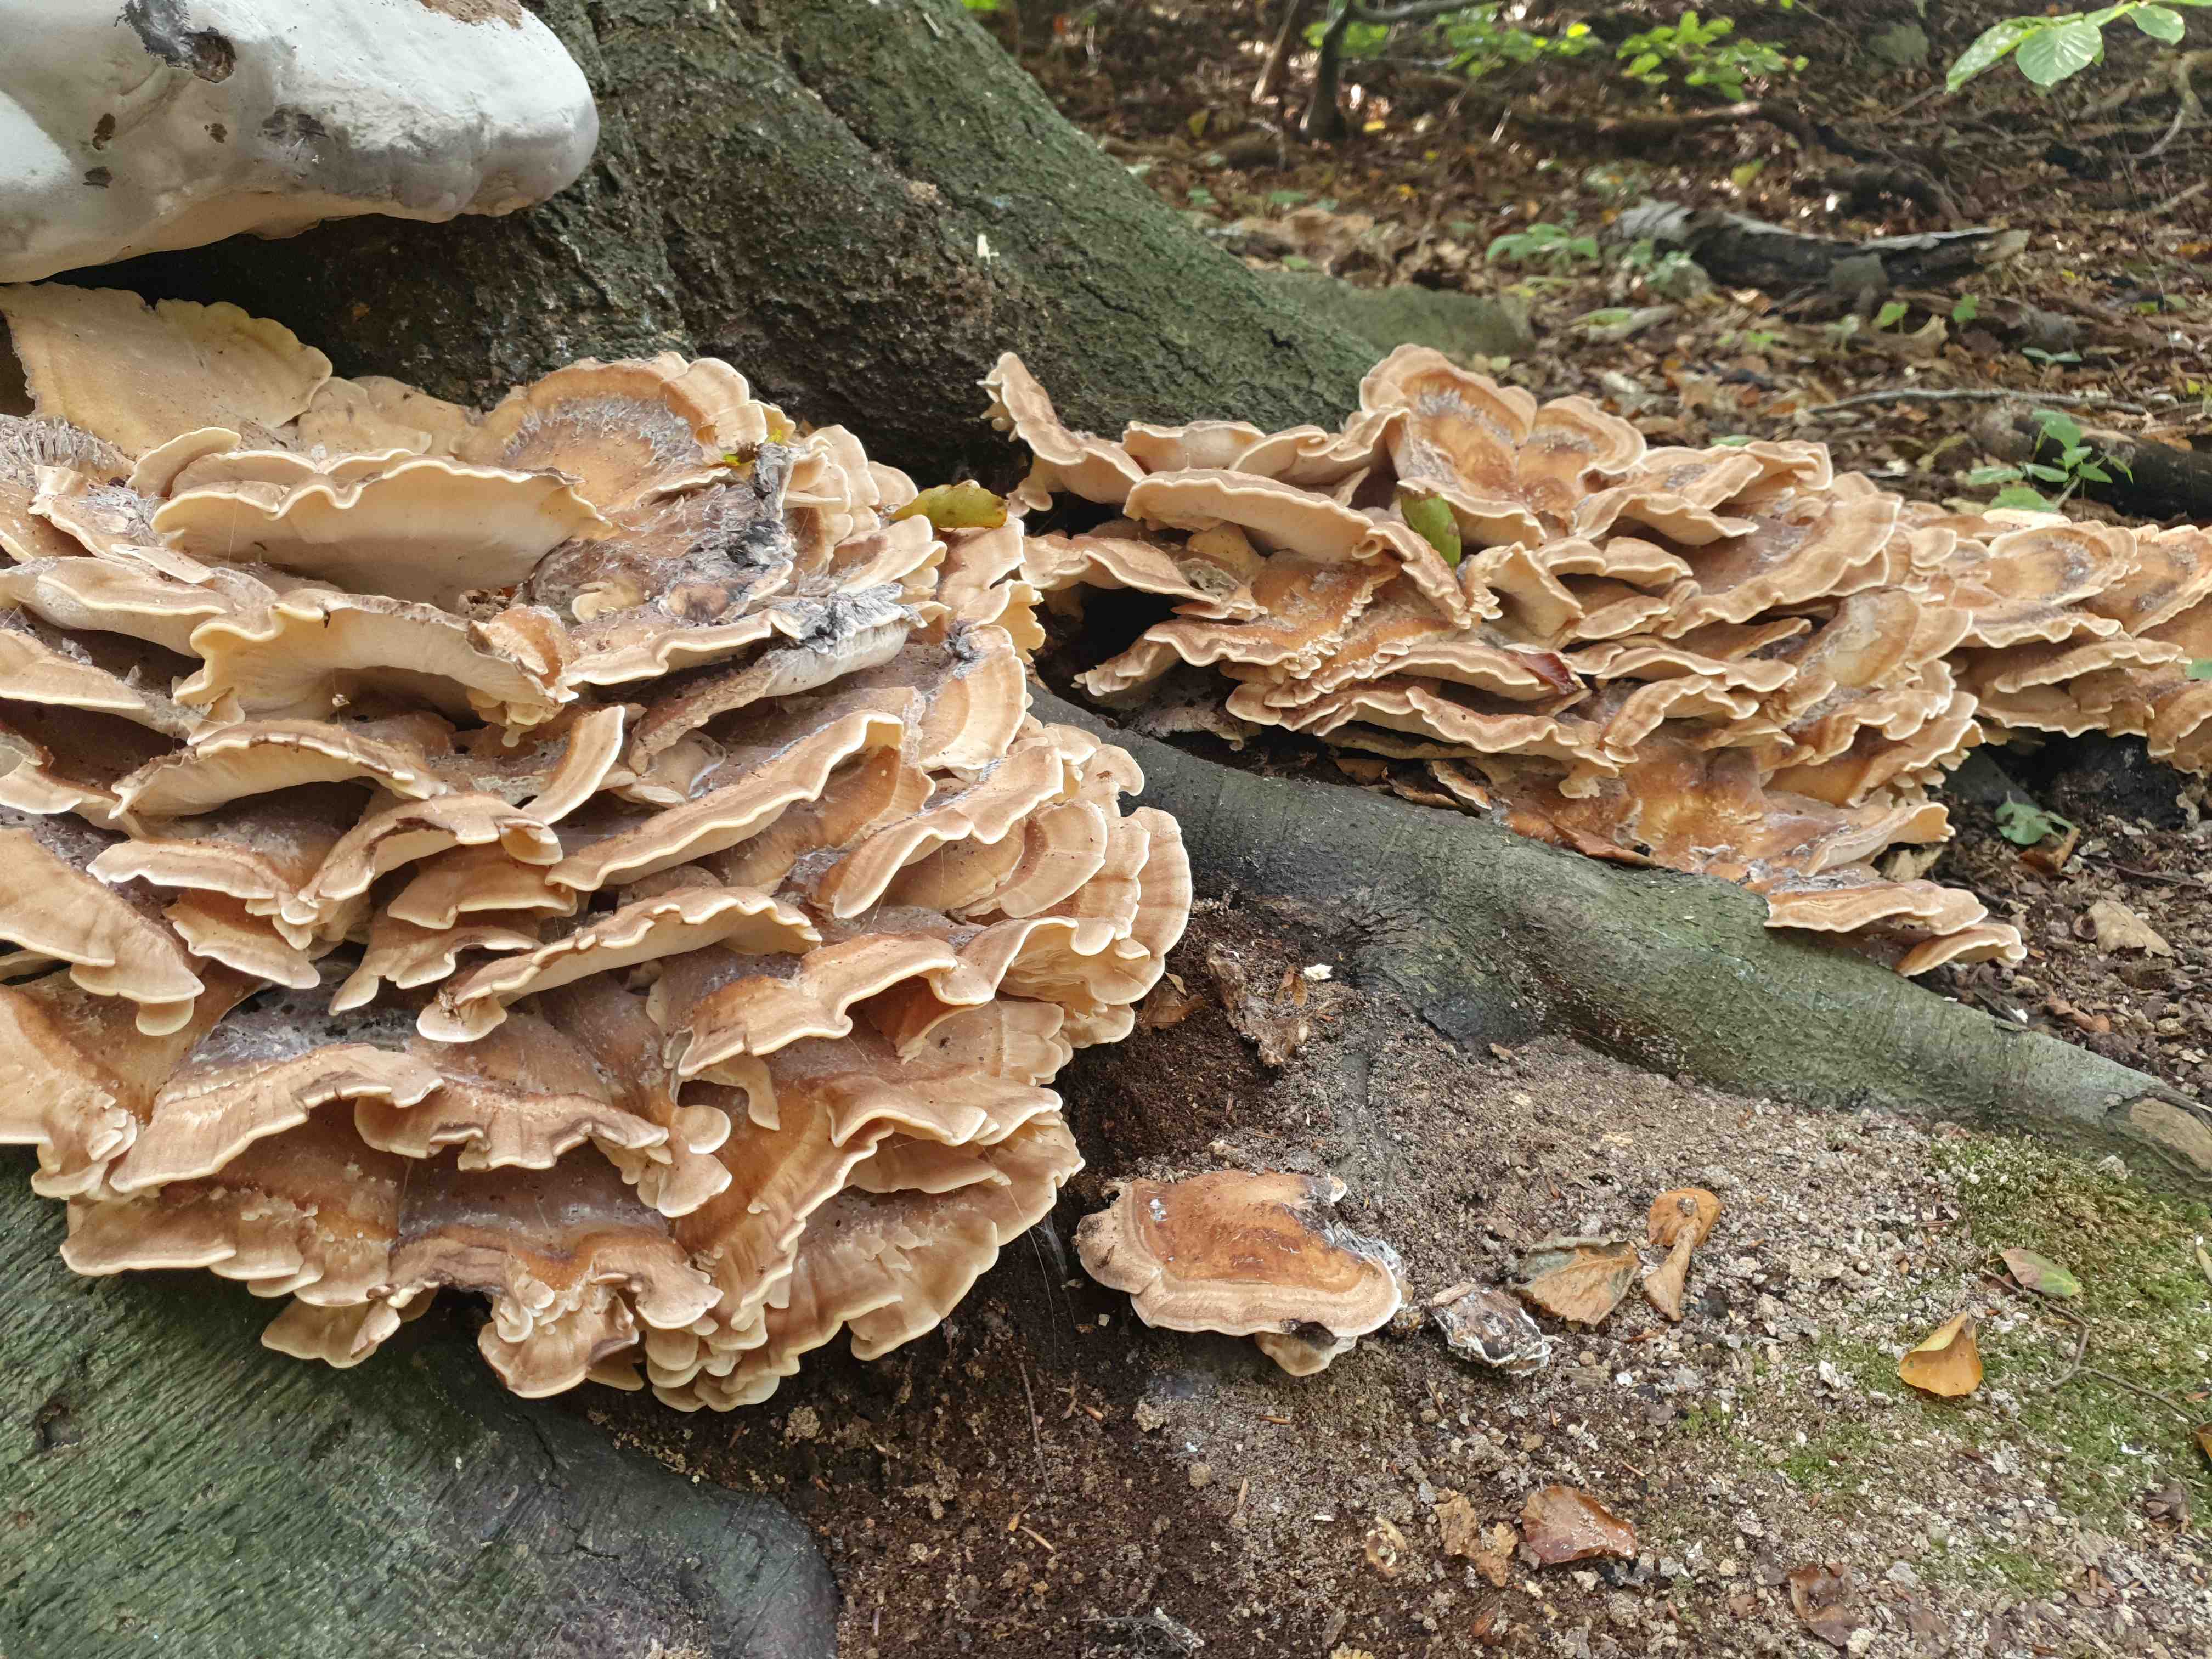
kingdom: Fungi
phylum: Basidiomycota
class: Agaricomycetes
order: Polyporales
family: Meripilaceae
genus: Meripilus
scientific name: Meripilus giganteus
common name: kæmpeporesvamp
